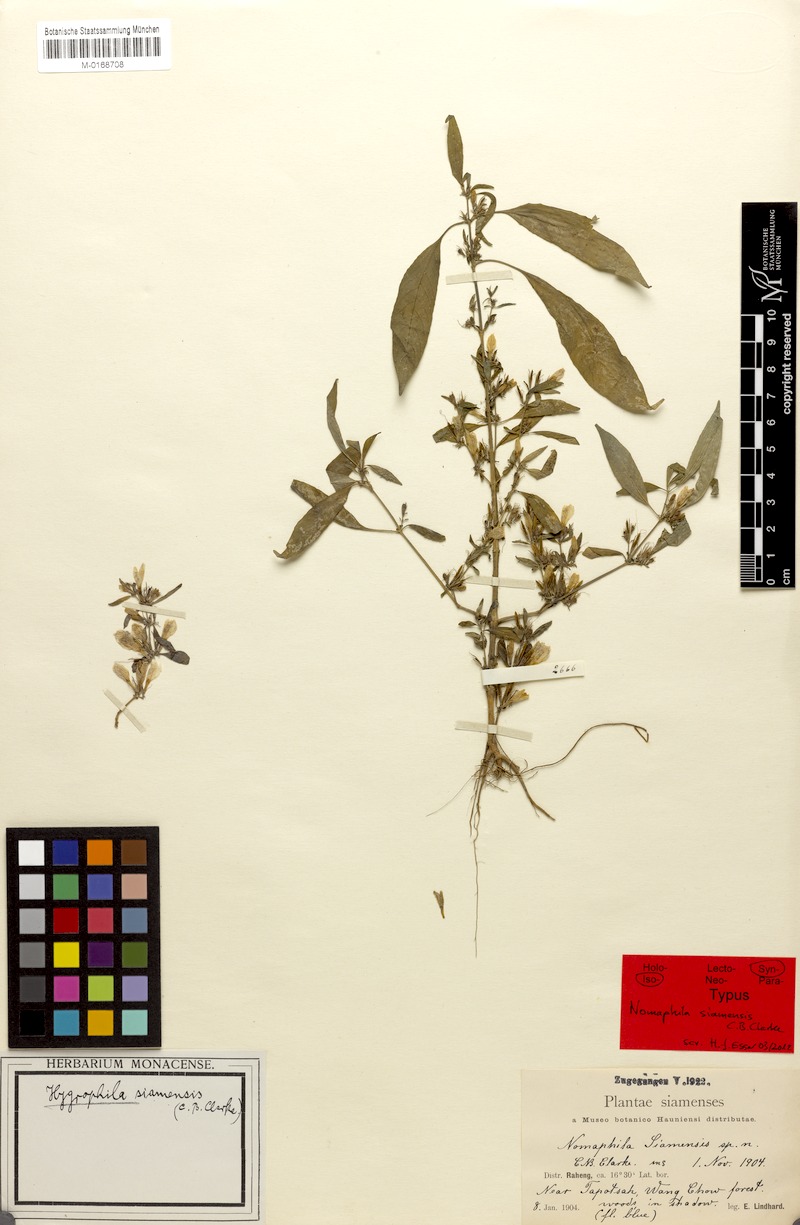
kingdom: Plantae
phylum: Tracheophyta
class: Magnoliopsida
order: Lamiales
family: Acanthaceae
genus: Hygrophila
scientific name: Hygrophila corymbosa
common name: Starhorn
